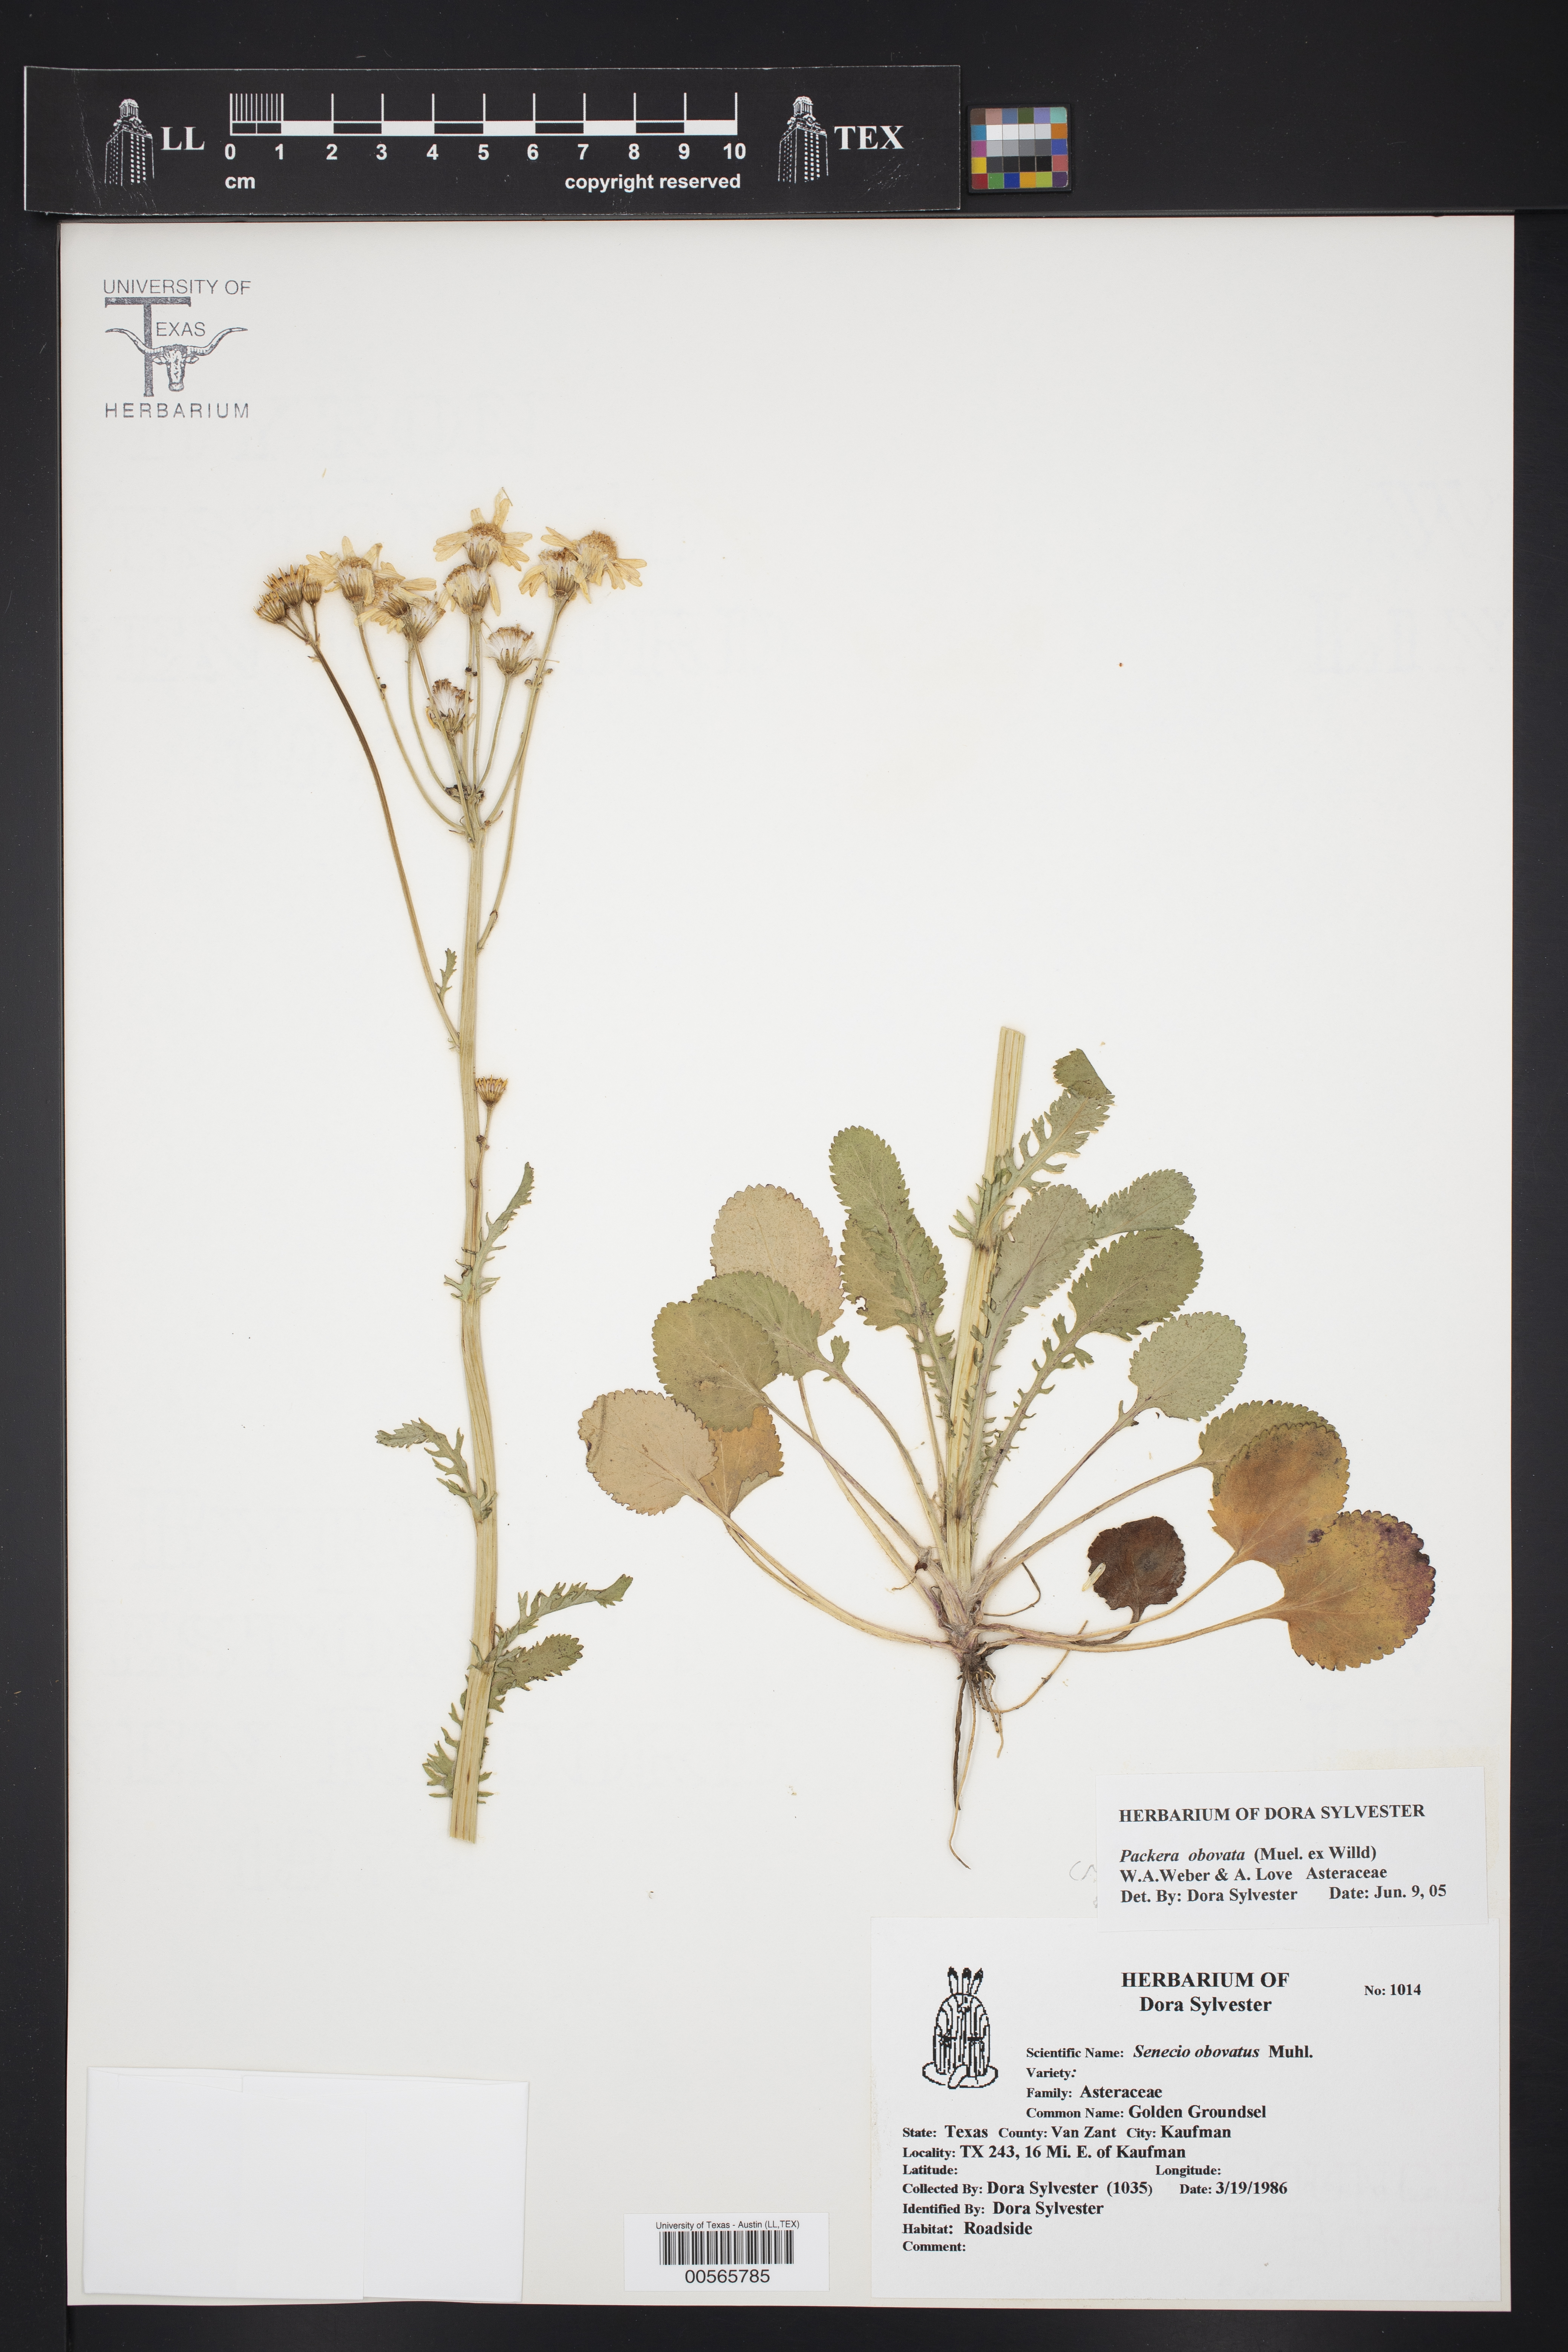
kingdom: Plantae
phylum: Tracheophyta
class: Magnoliopsida
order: Asterales
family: Asteraceae
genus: Packera
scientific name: Packera obovata
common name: Round-leaf ragwort
